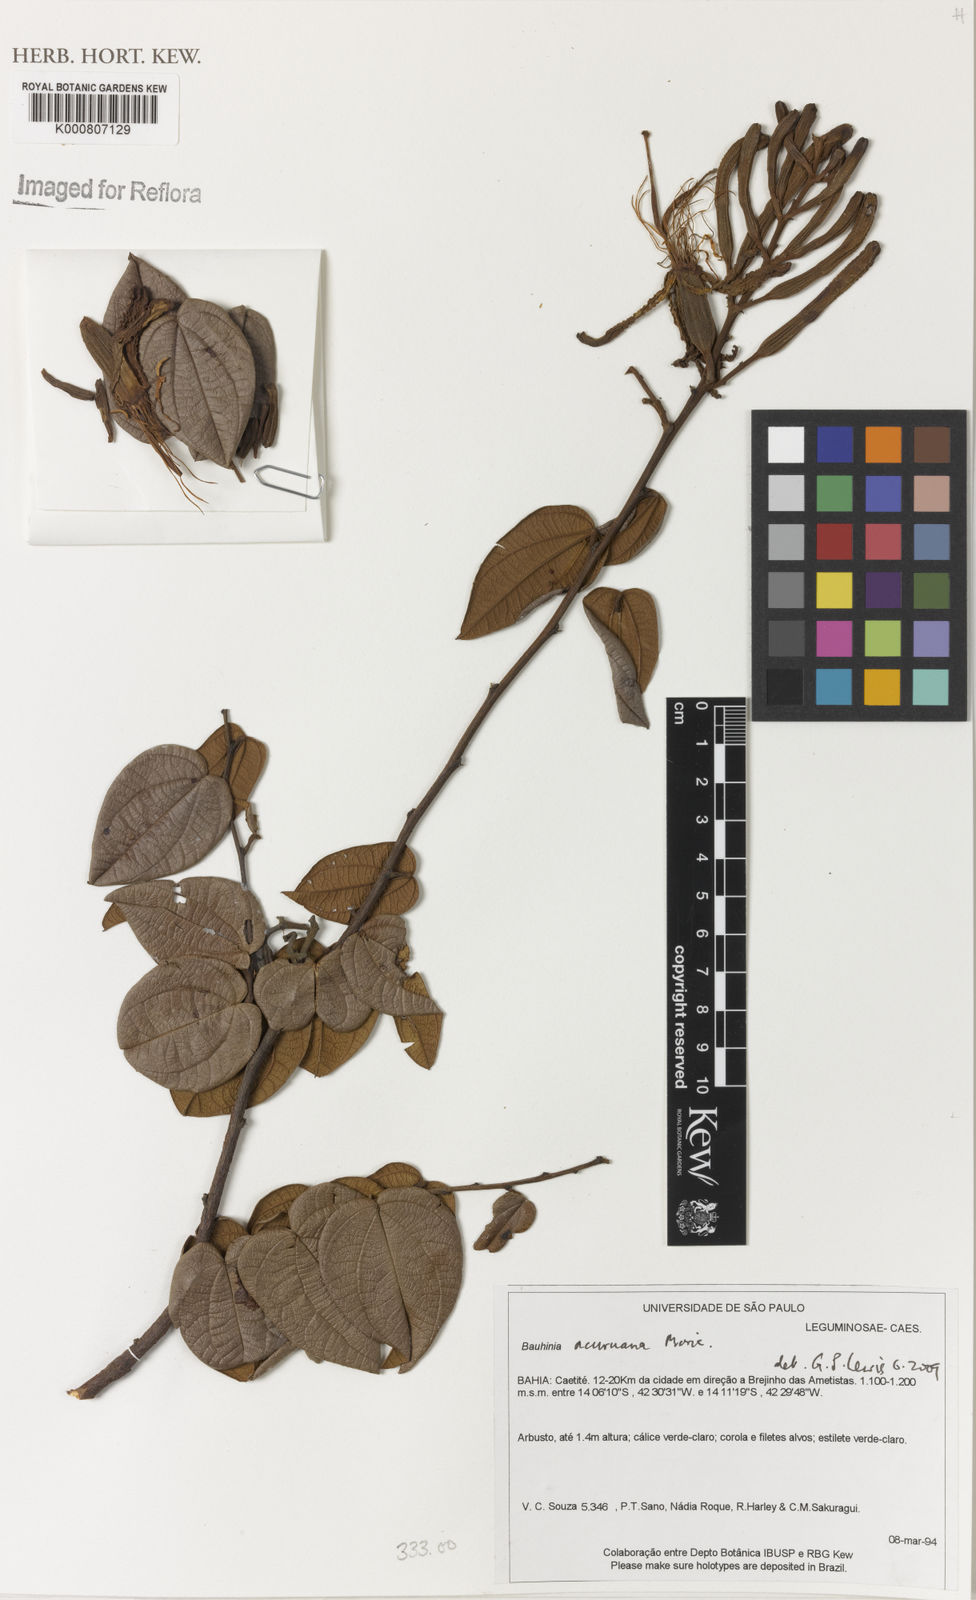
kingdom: Plantae
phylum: Tracheophyta
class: Magnoliopsida
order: Fabales
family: Fabaceae
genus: Bauhinia
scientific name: Bauhinia acuruana
